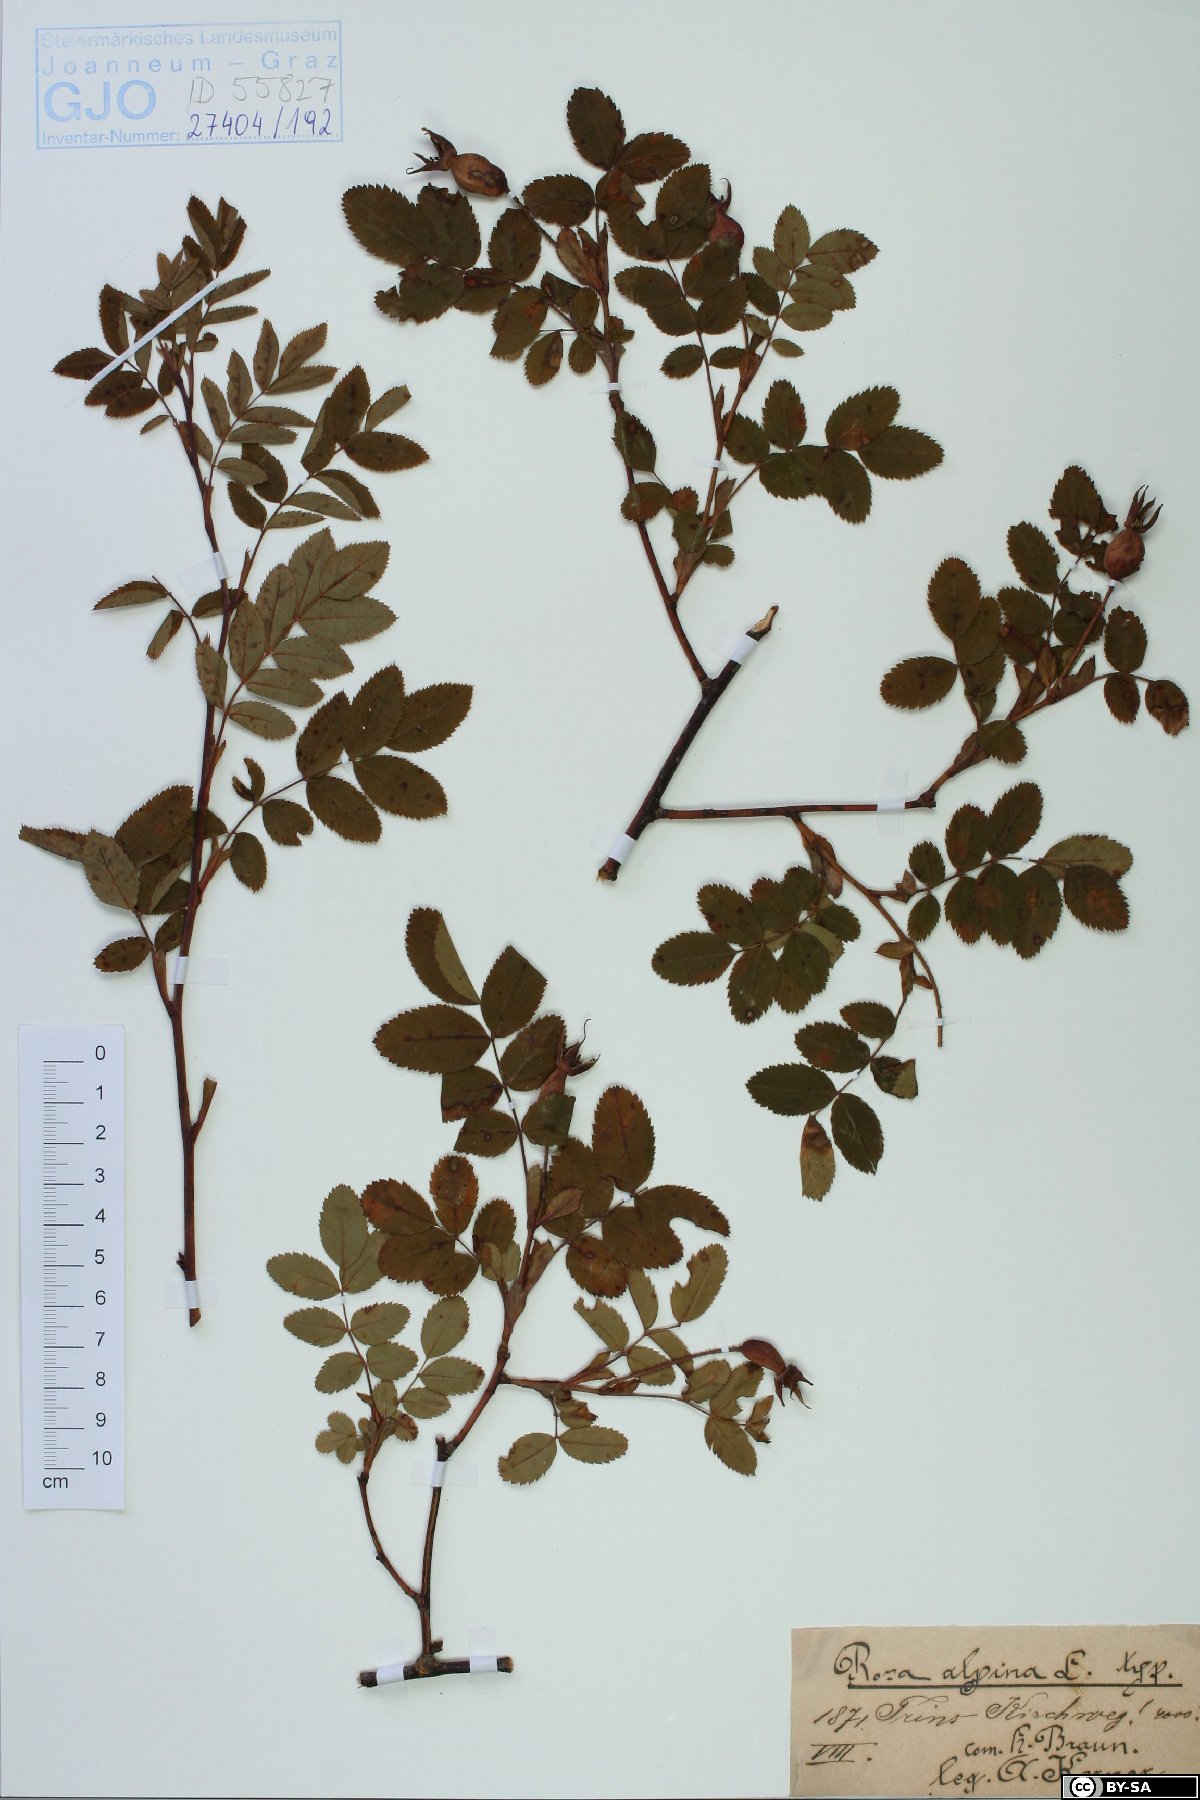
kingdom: Plantae
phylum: Tracheophyta
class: Magnoliopsida
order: Rosales
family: Rosaceae
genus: Rosa
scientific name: Rosa pendulina
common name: Alpine rose
